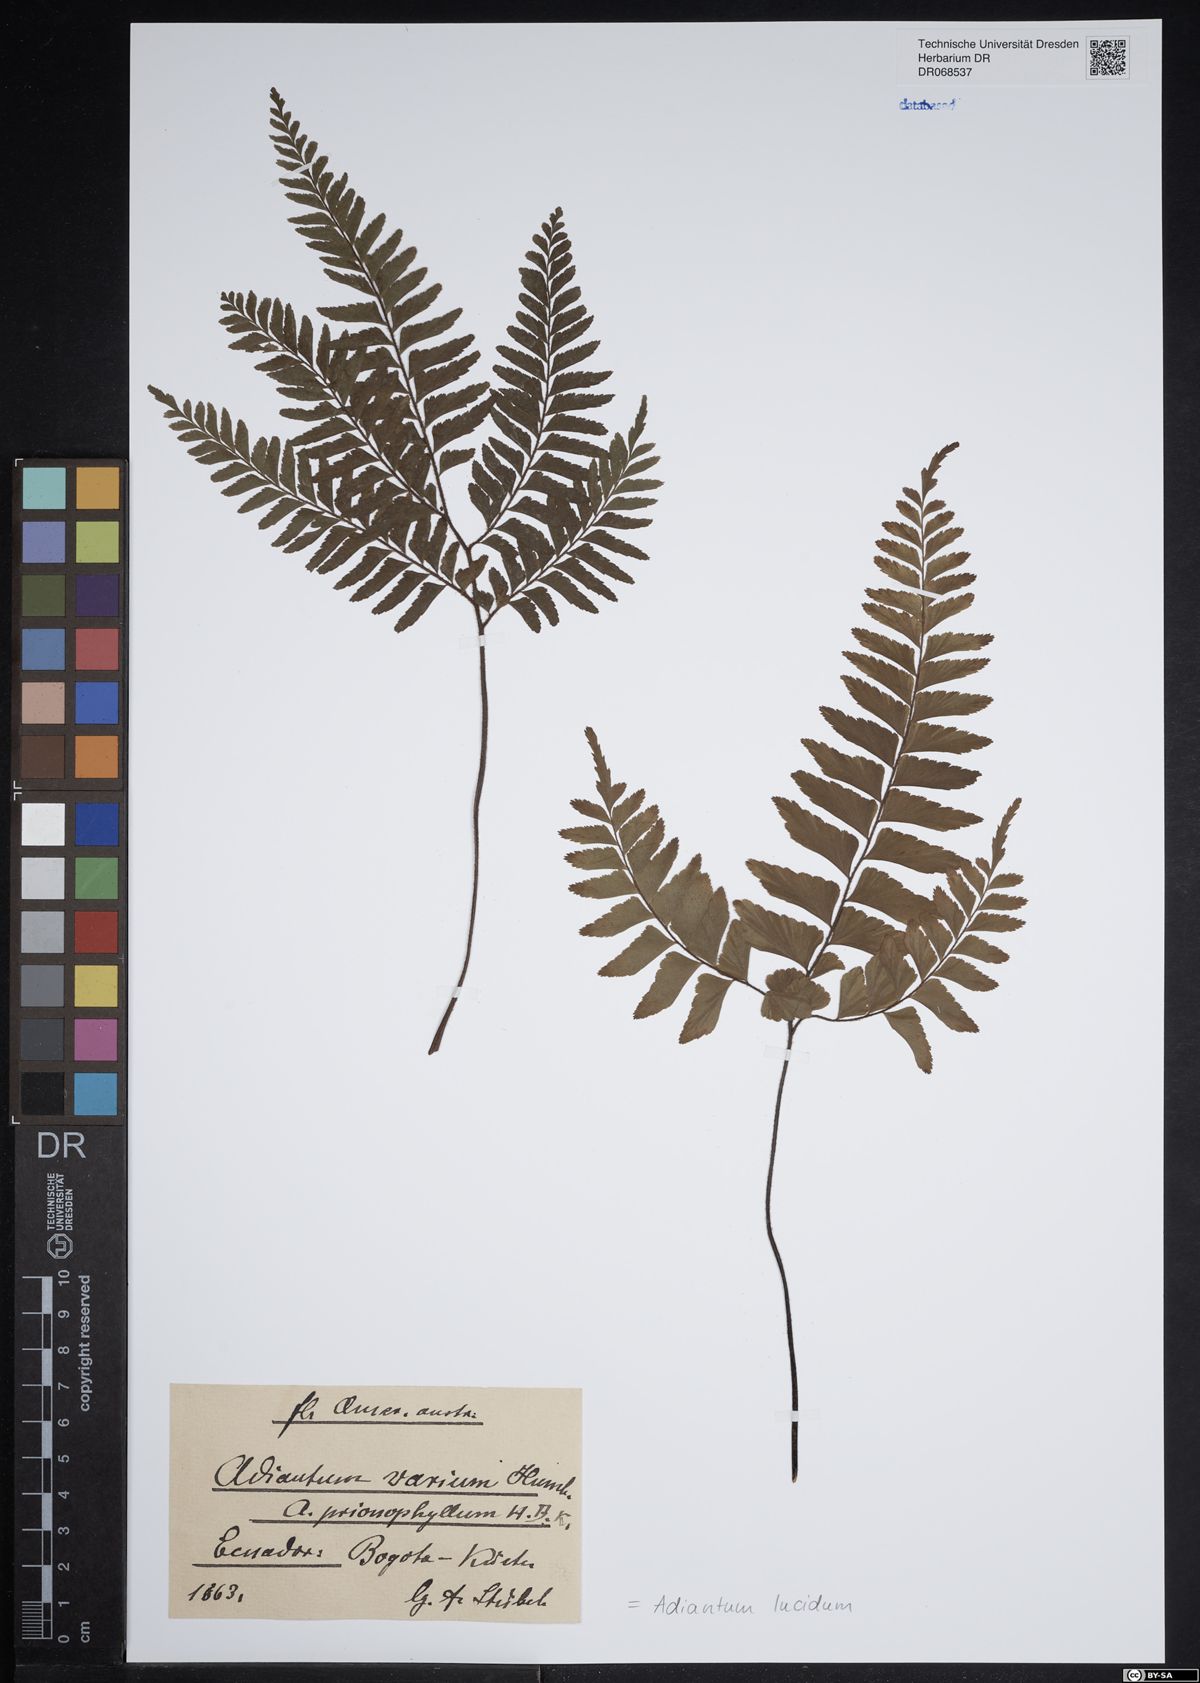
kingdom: Plantae
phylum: Tracheophyta
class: Polypodiopsida
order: Polypodiales
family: Pteridaceae
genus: Adiantum
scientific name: Adiantum lucidum
